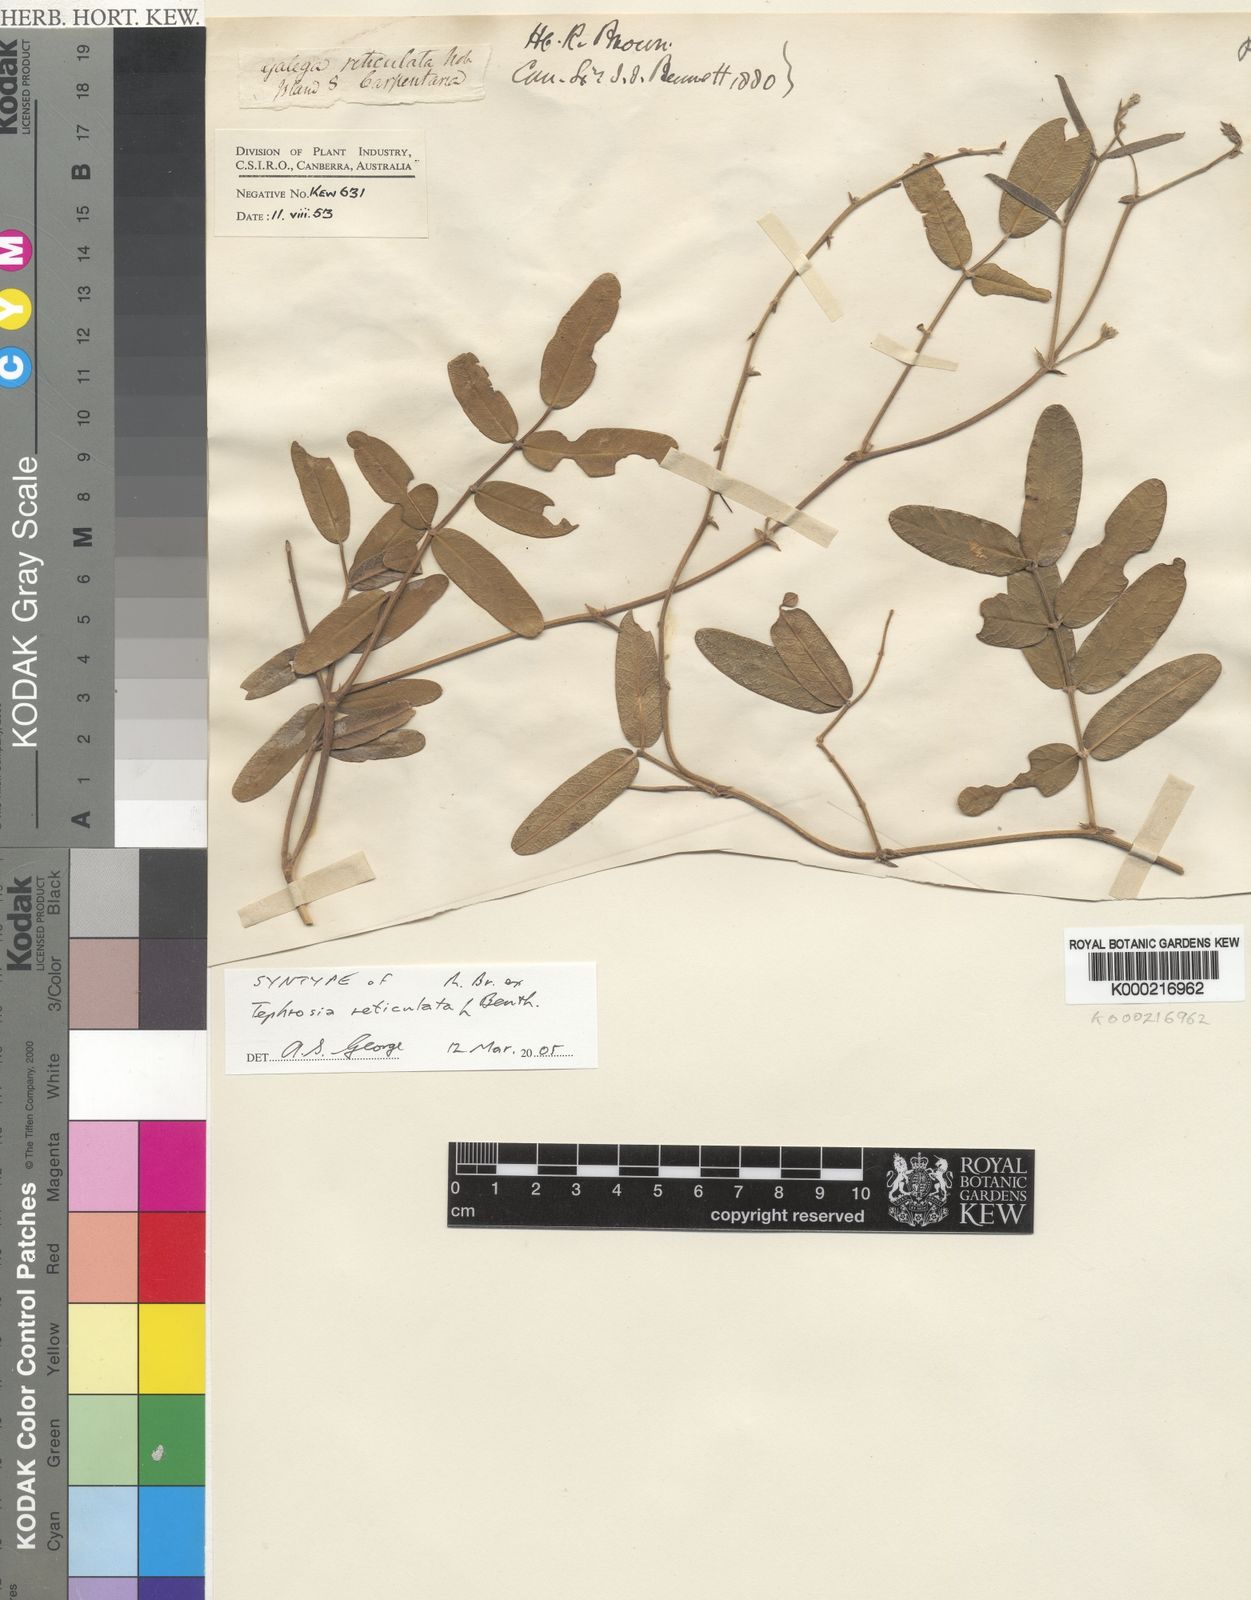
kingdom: Plantae
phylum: Tracheophyta
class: Magnoliopsida
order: Fabales
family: Fabaceae
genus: Tephrosia
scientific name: Tephrosia reticulata
